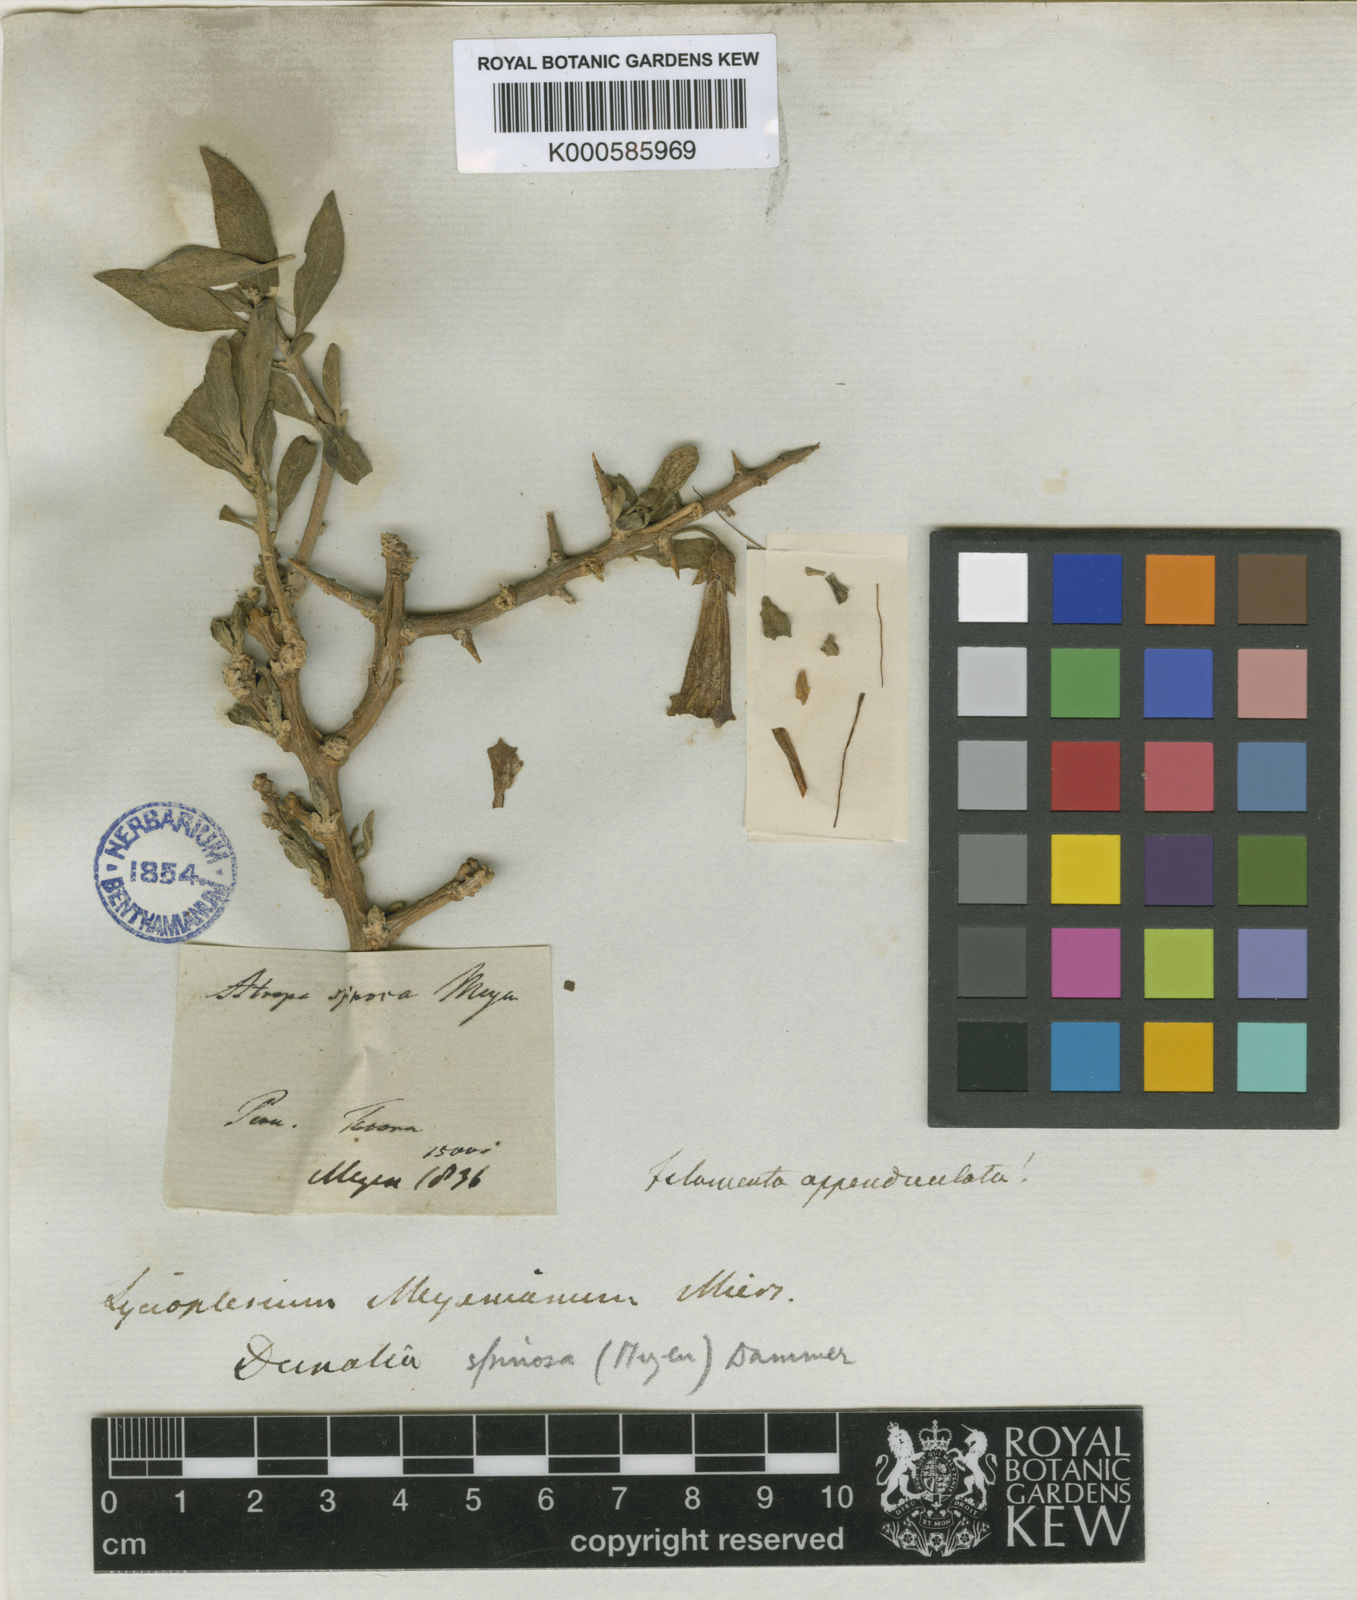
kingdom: Plantae
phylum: Tracheophyta
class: Magnoliopsida
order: Solanales
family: Solanaceae
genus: Dunalia
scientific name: Dunalia spinosa
